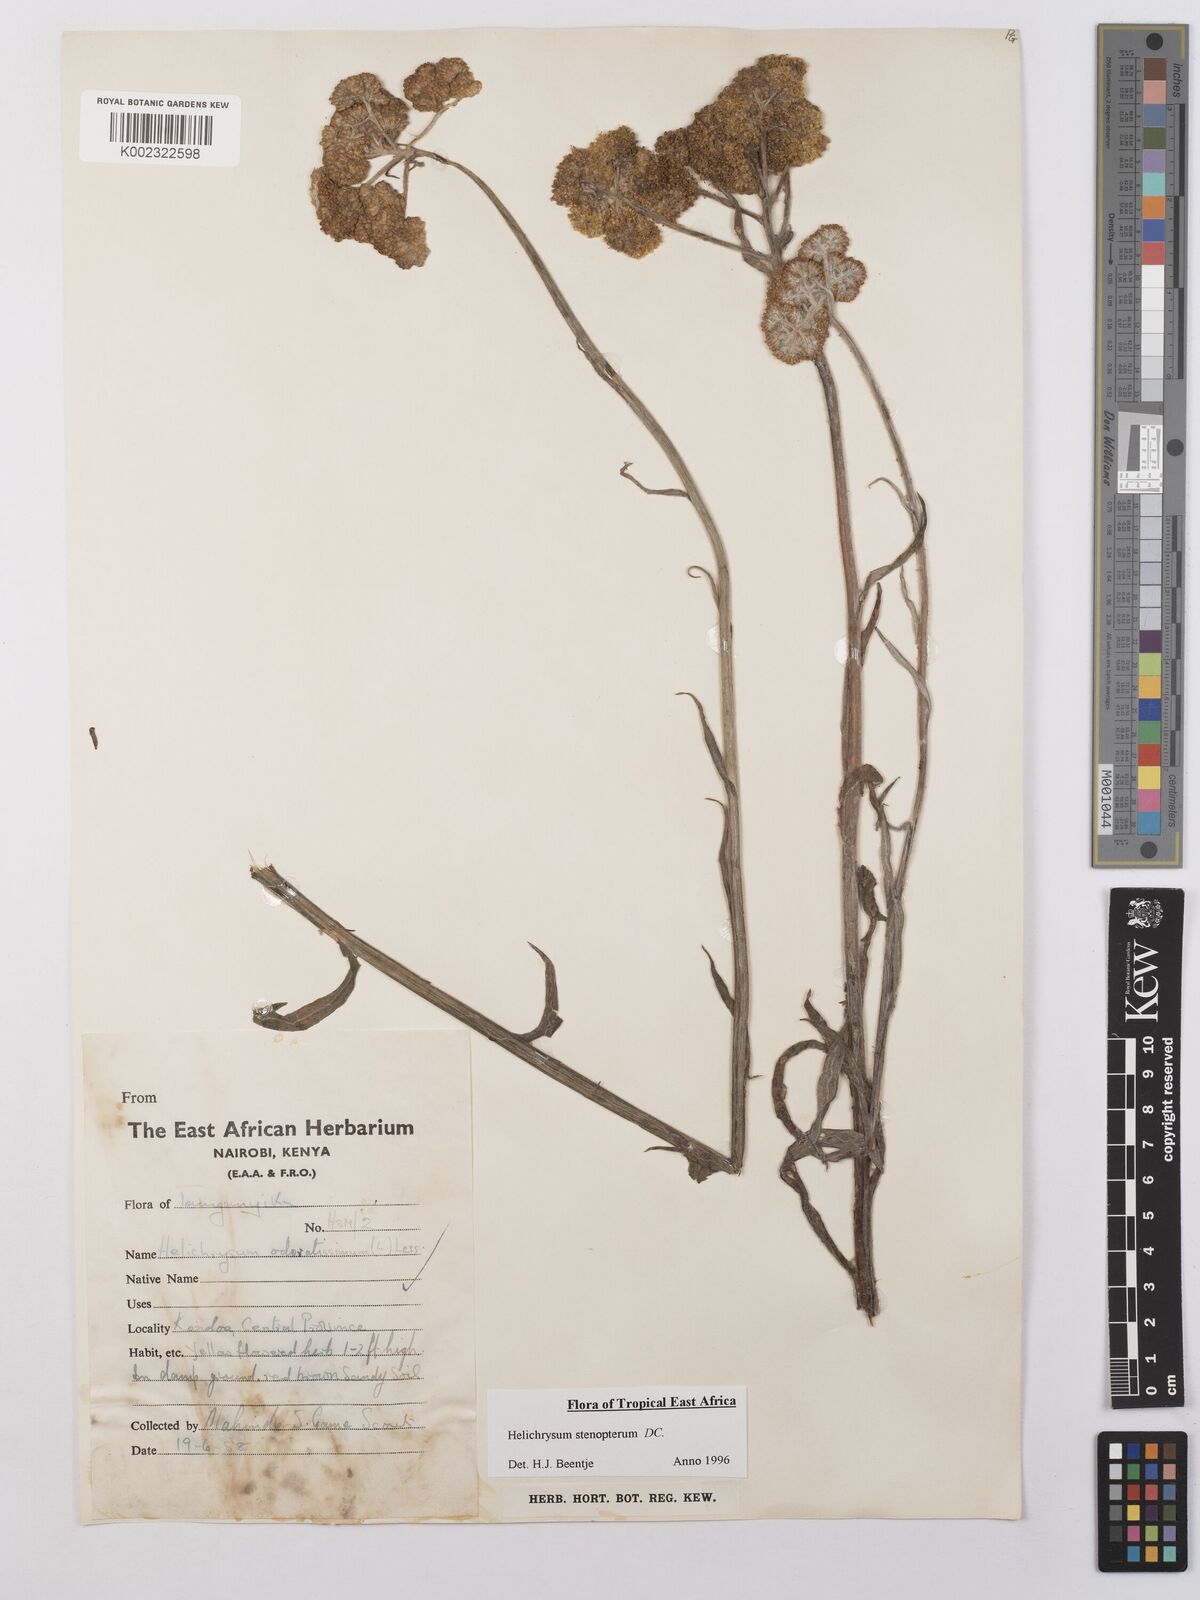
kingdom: Plantae
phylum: Tracheophyta
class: Magnoliopsida
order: Asterales
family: Asteraceae
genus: Helichrysum
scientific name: Helichrysum stenopterum
